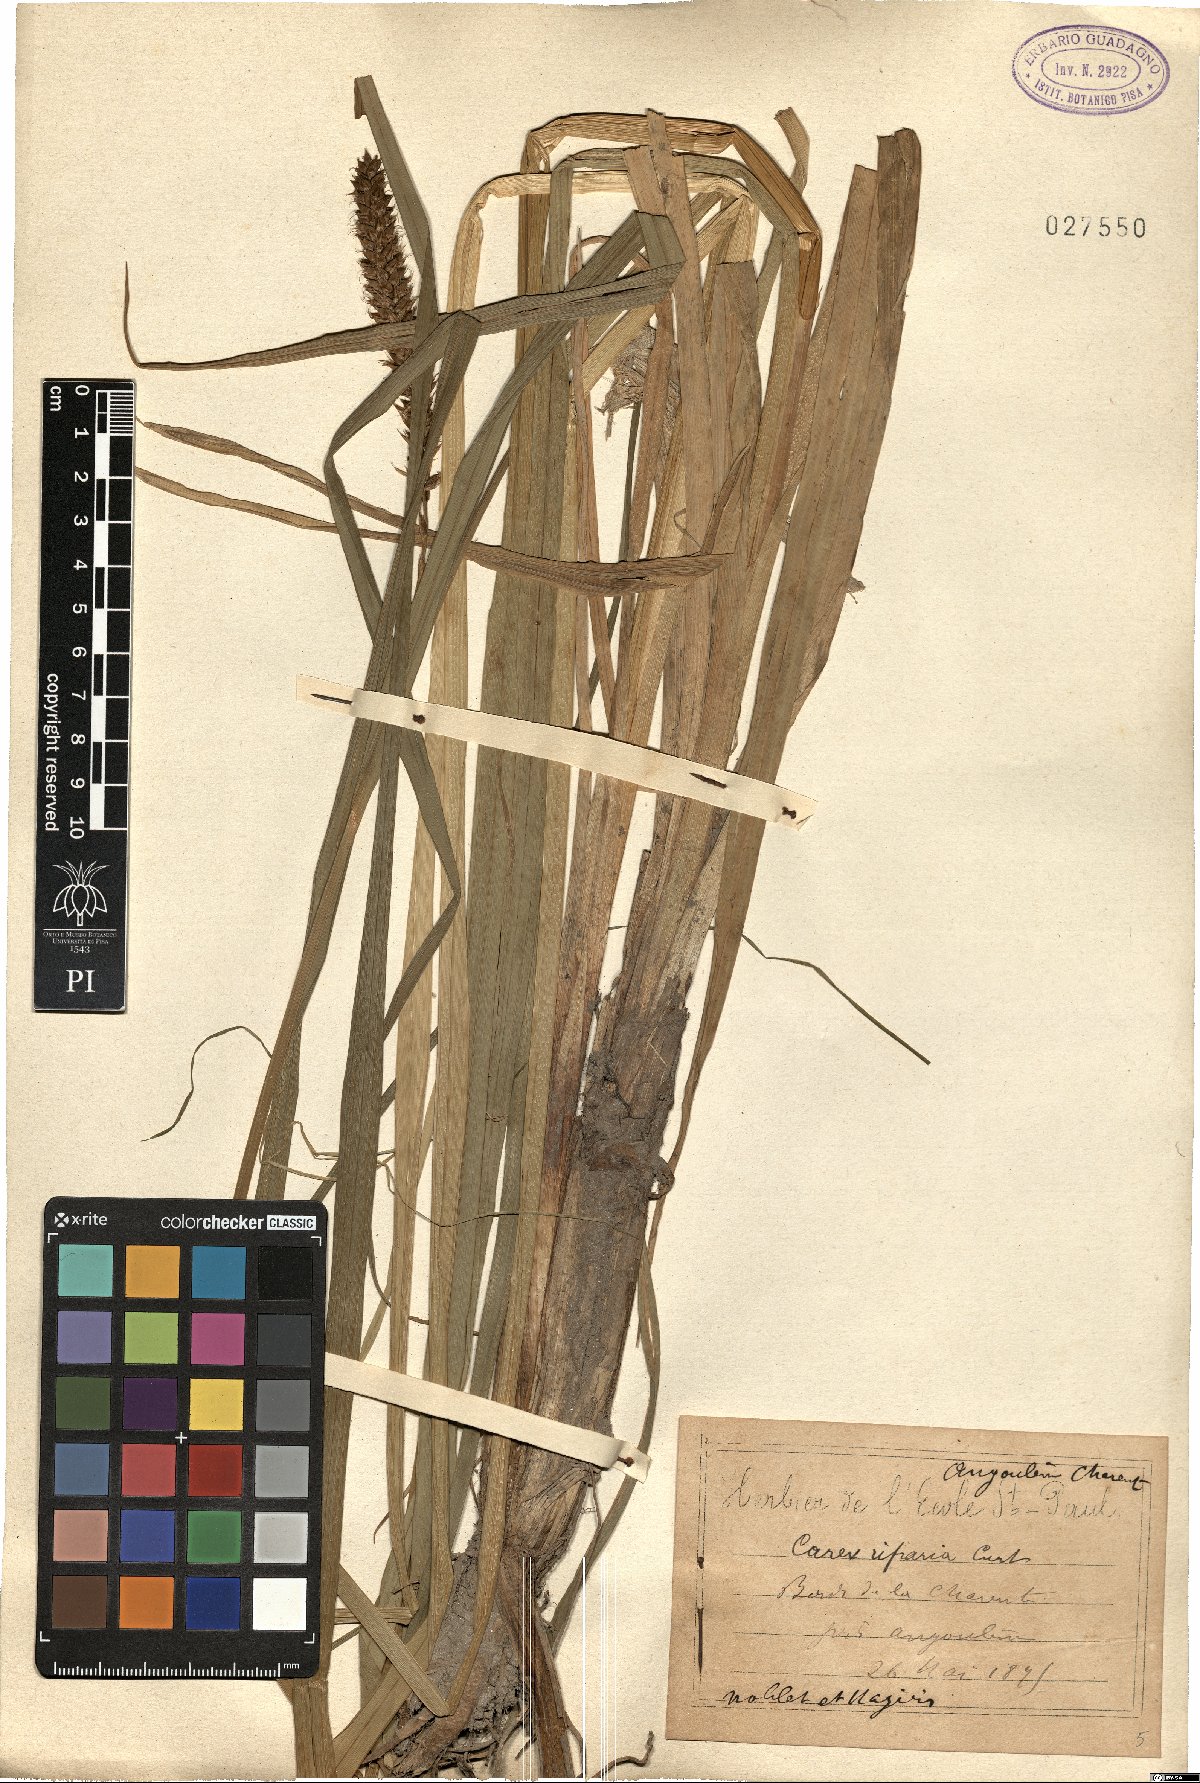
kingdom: Plantae
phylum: Tracheophyta
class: Liliopsida
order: Poales
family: Cyperaceae
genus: Carex
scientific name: Carex riparia
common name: Greater pond-sedge
